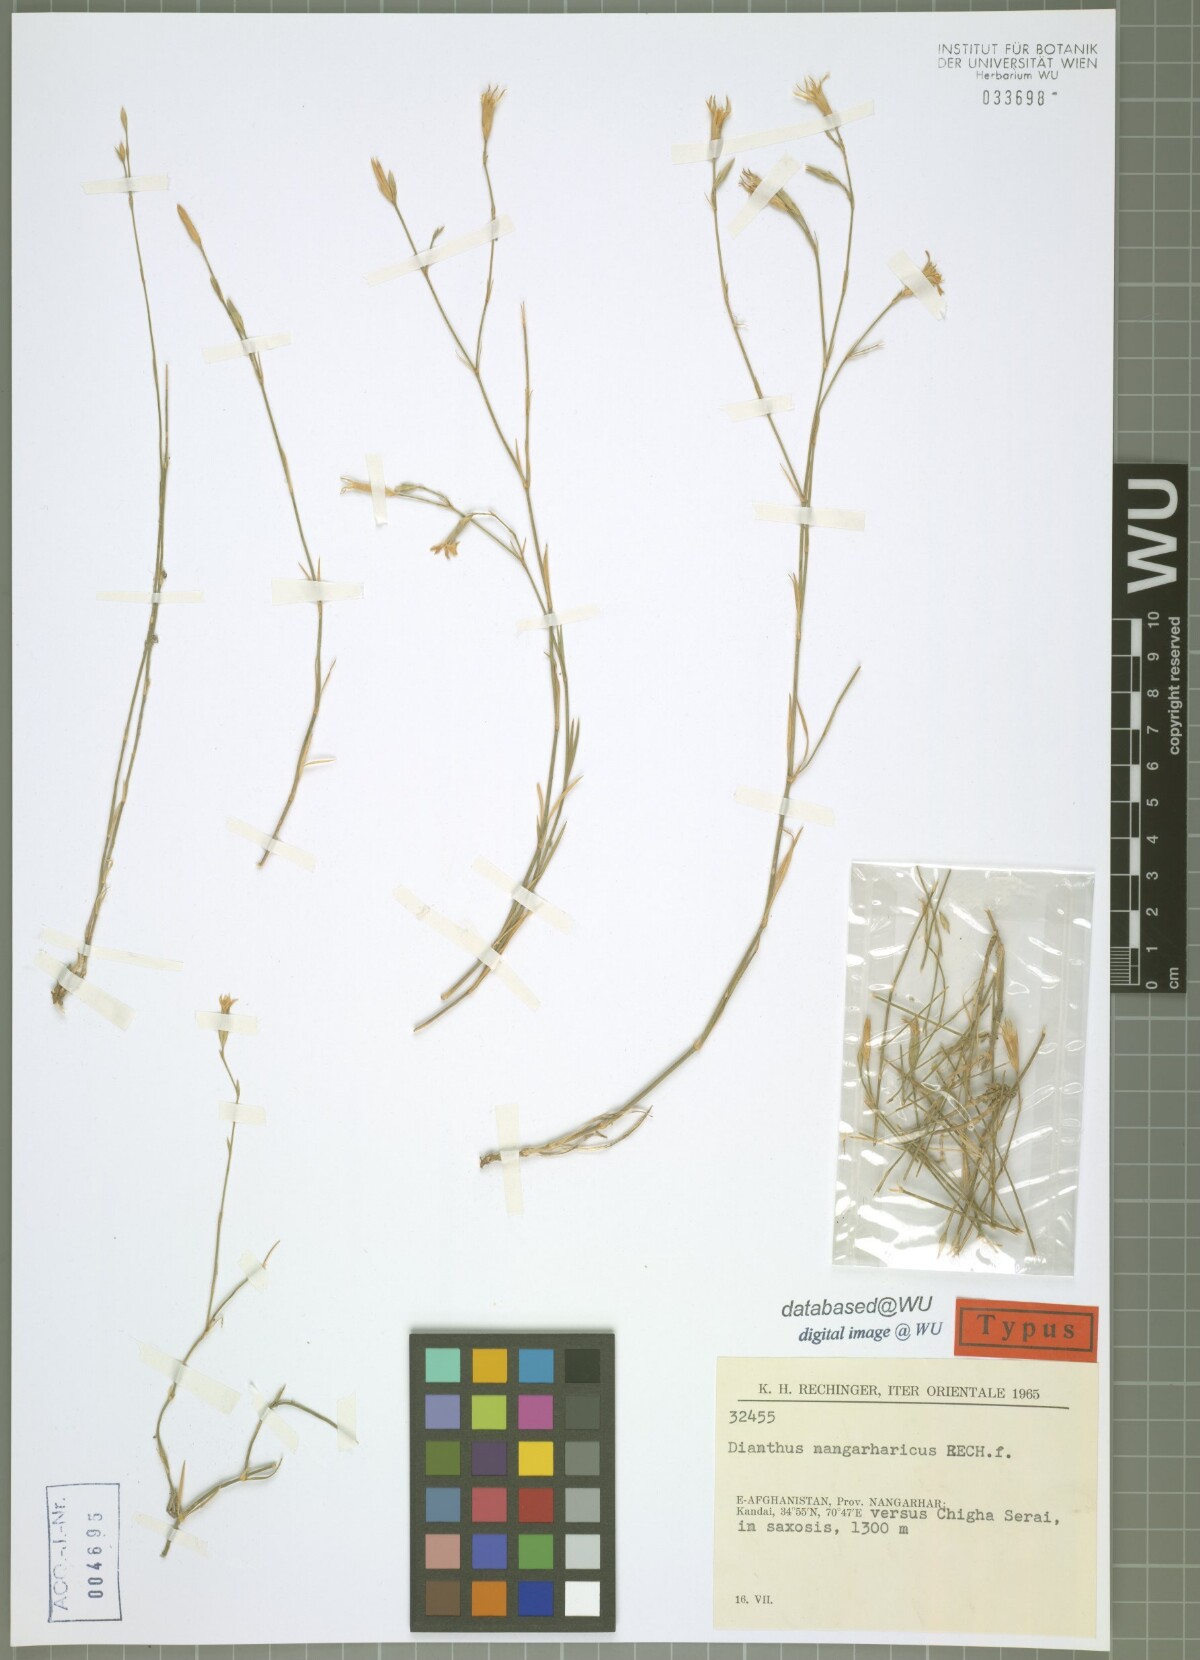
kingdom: Plantae
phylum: Tracheophyta
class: Magnoliopsida
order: Caryophyllales
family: Caryophyllaceae
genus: Dianthus
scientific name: Dianthus nangarharicus
